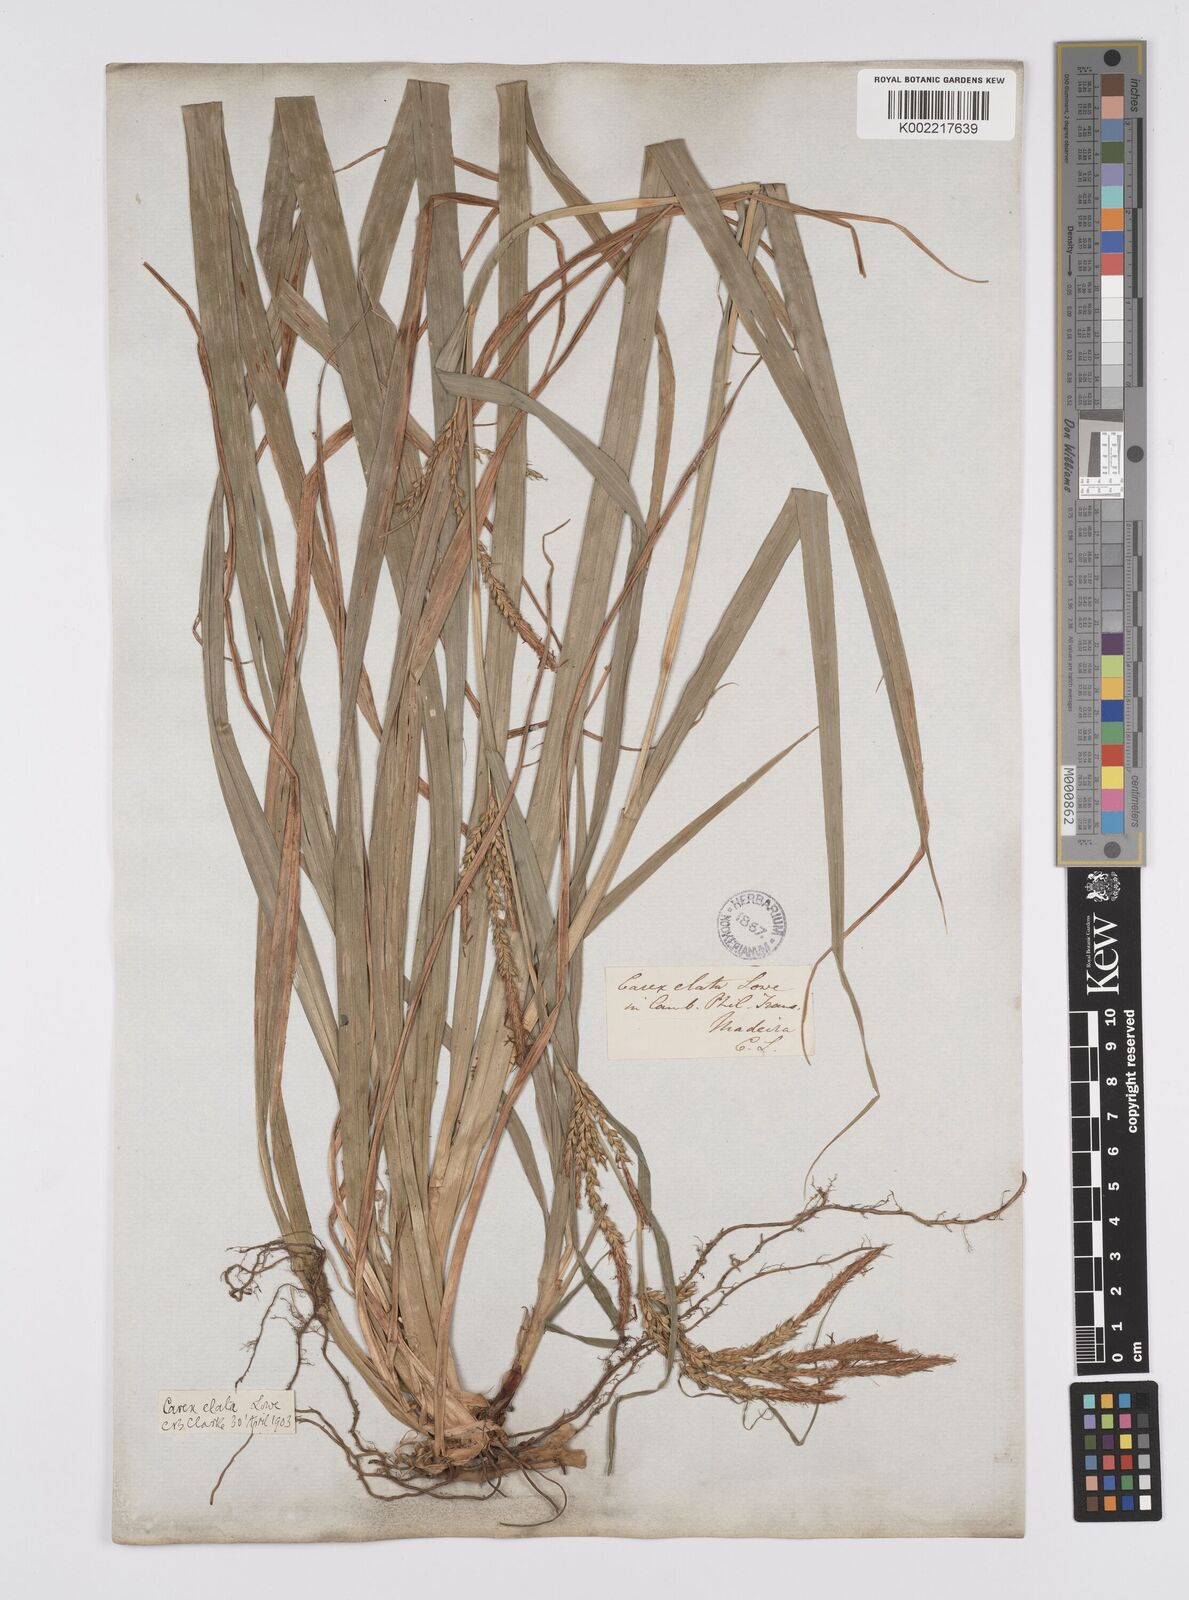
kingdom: Plantae
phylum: Tracheophyta
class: Liliopsida
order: Poales
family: Cyperaceae
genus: Carex
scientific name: Carex lowei
